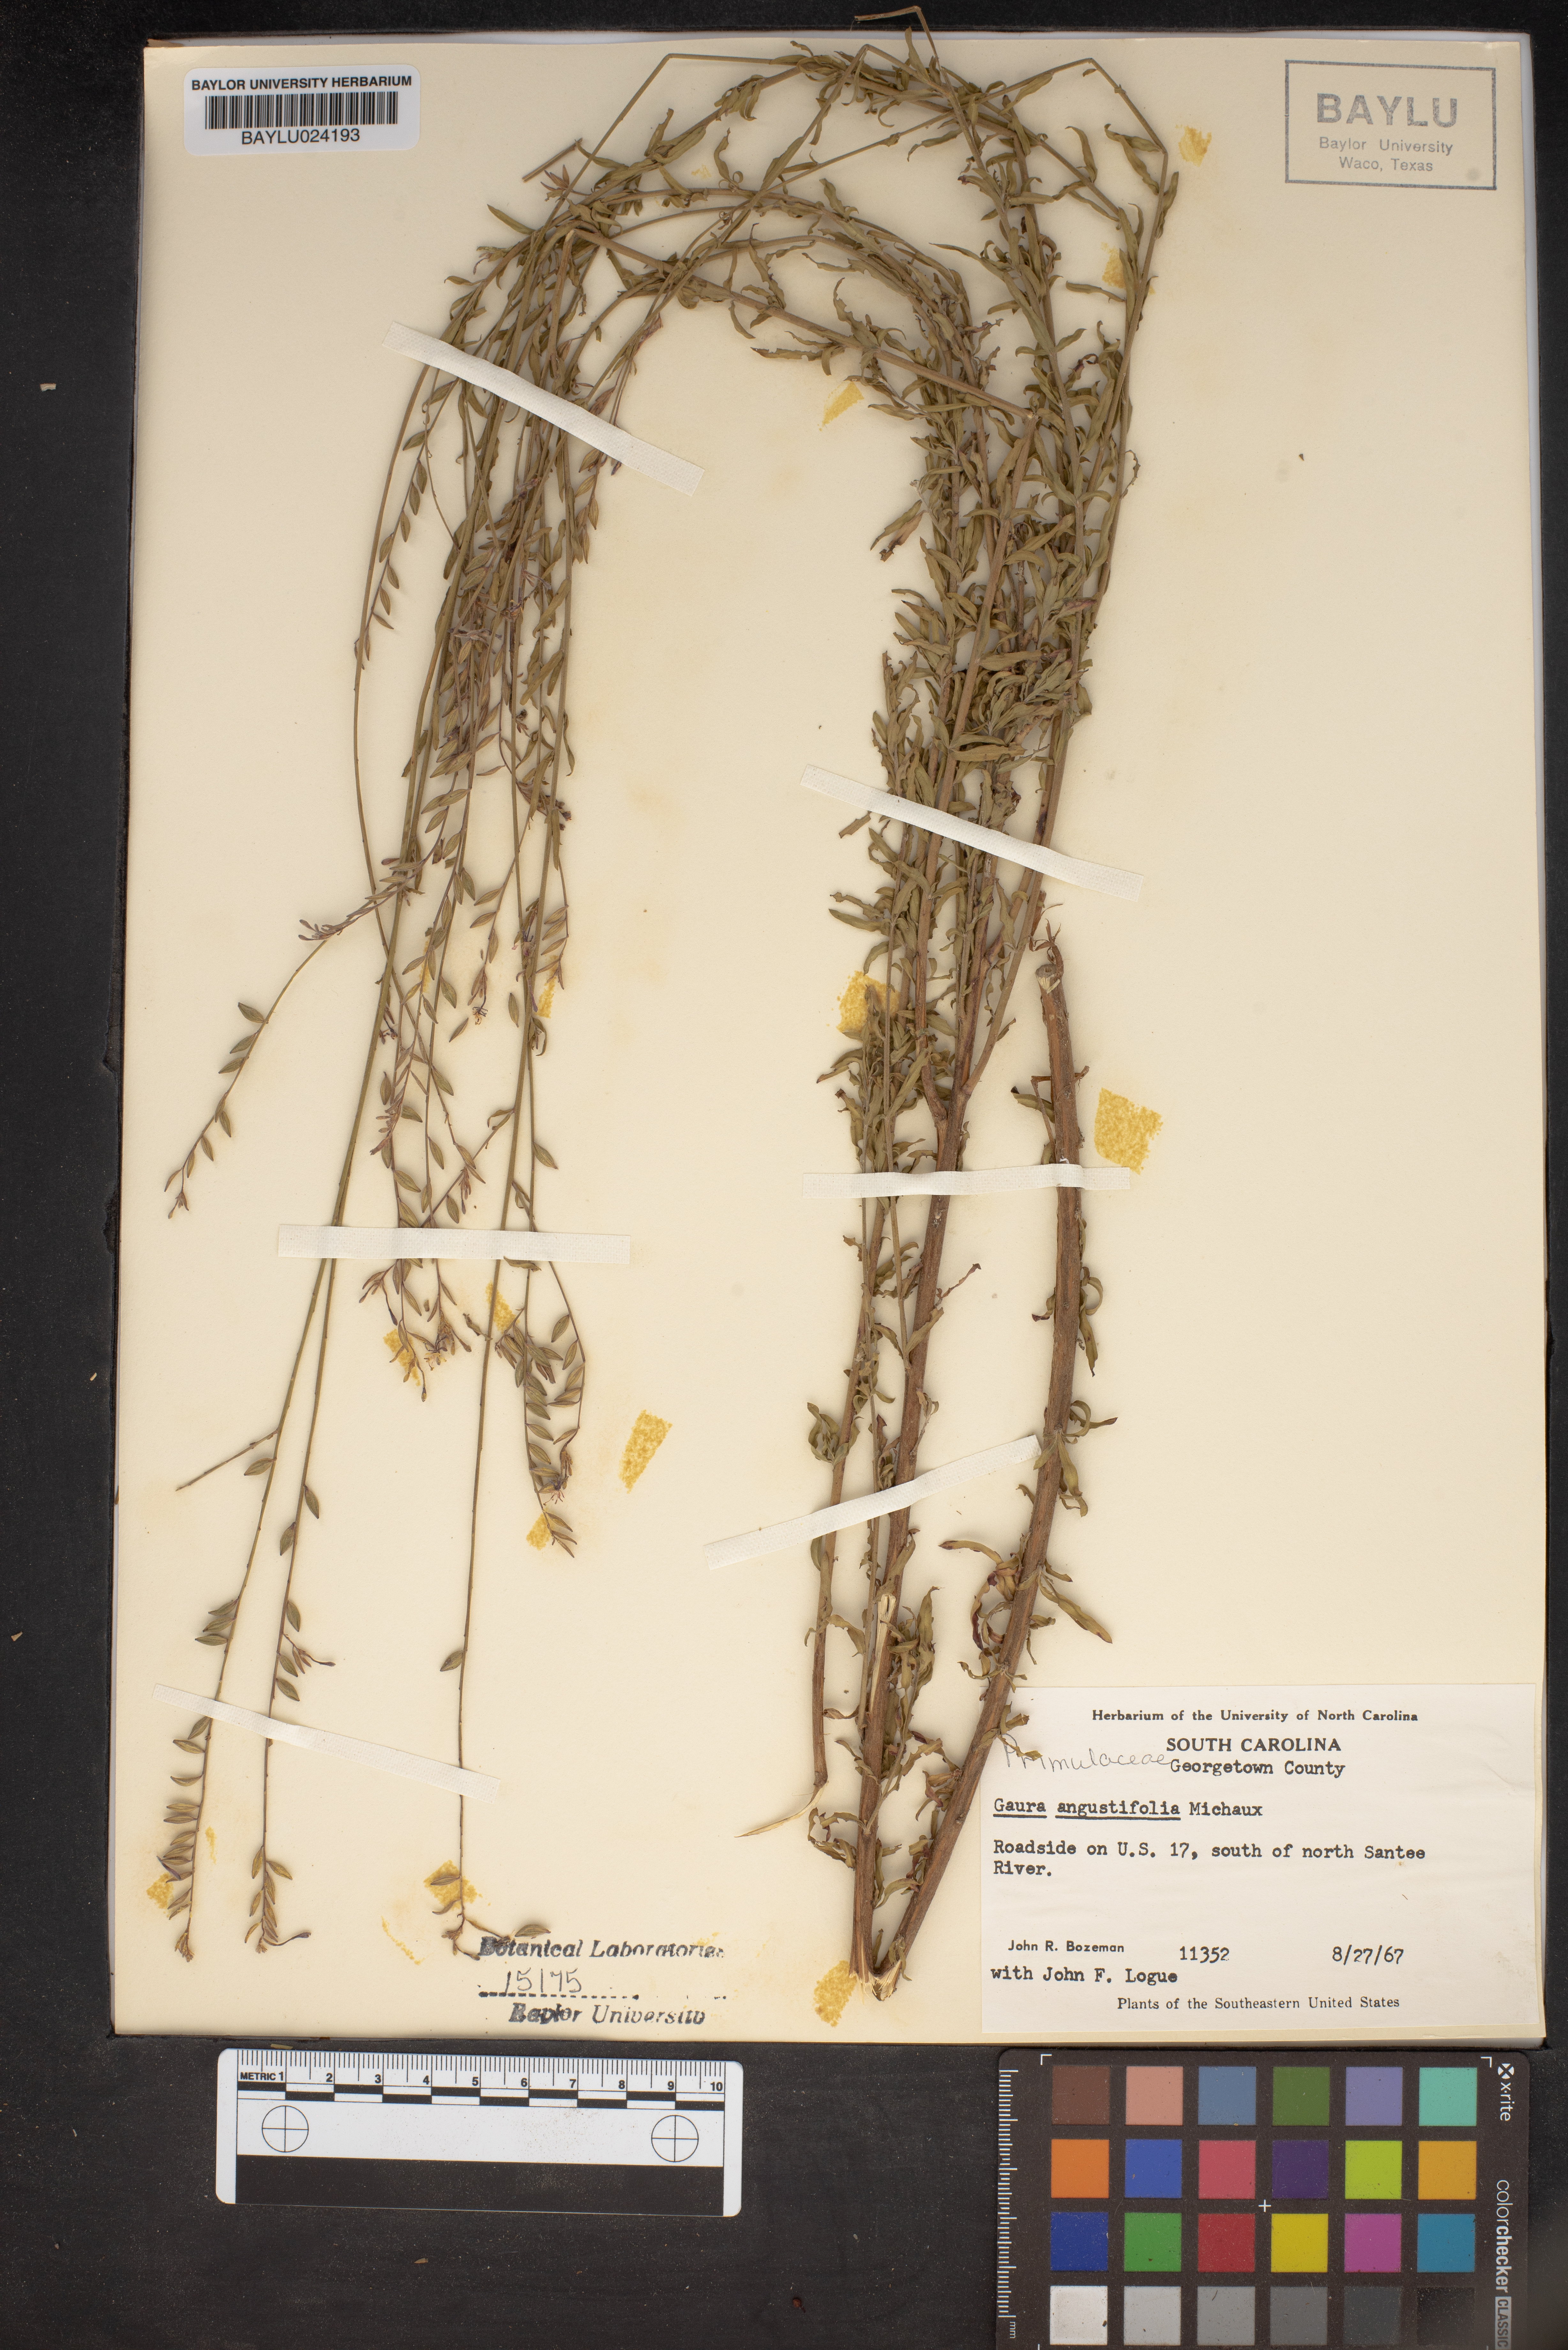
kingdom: Plantae
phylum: Tracheophyta
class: Magnoliopsida
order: Myrtales
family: Onagraceae
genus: Oenothera
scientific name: Oenothera simulans
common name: Southern beeblossom
